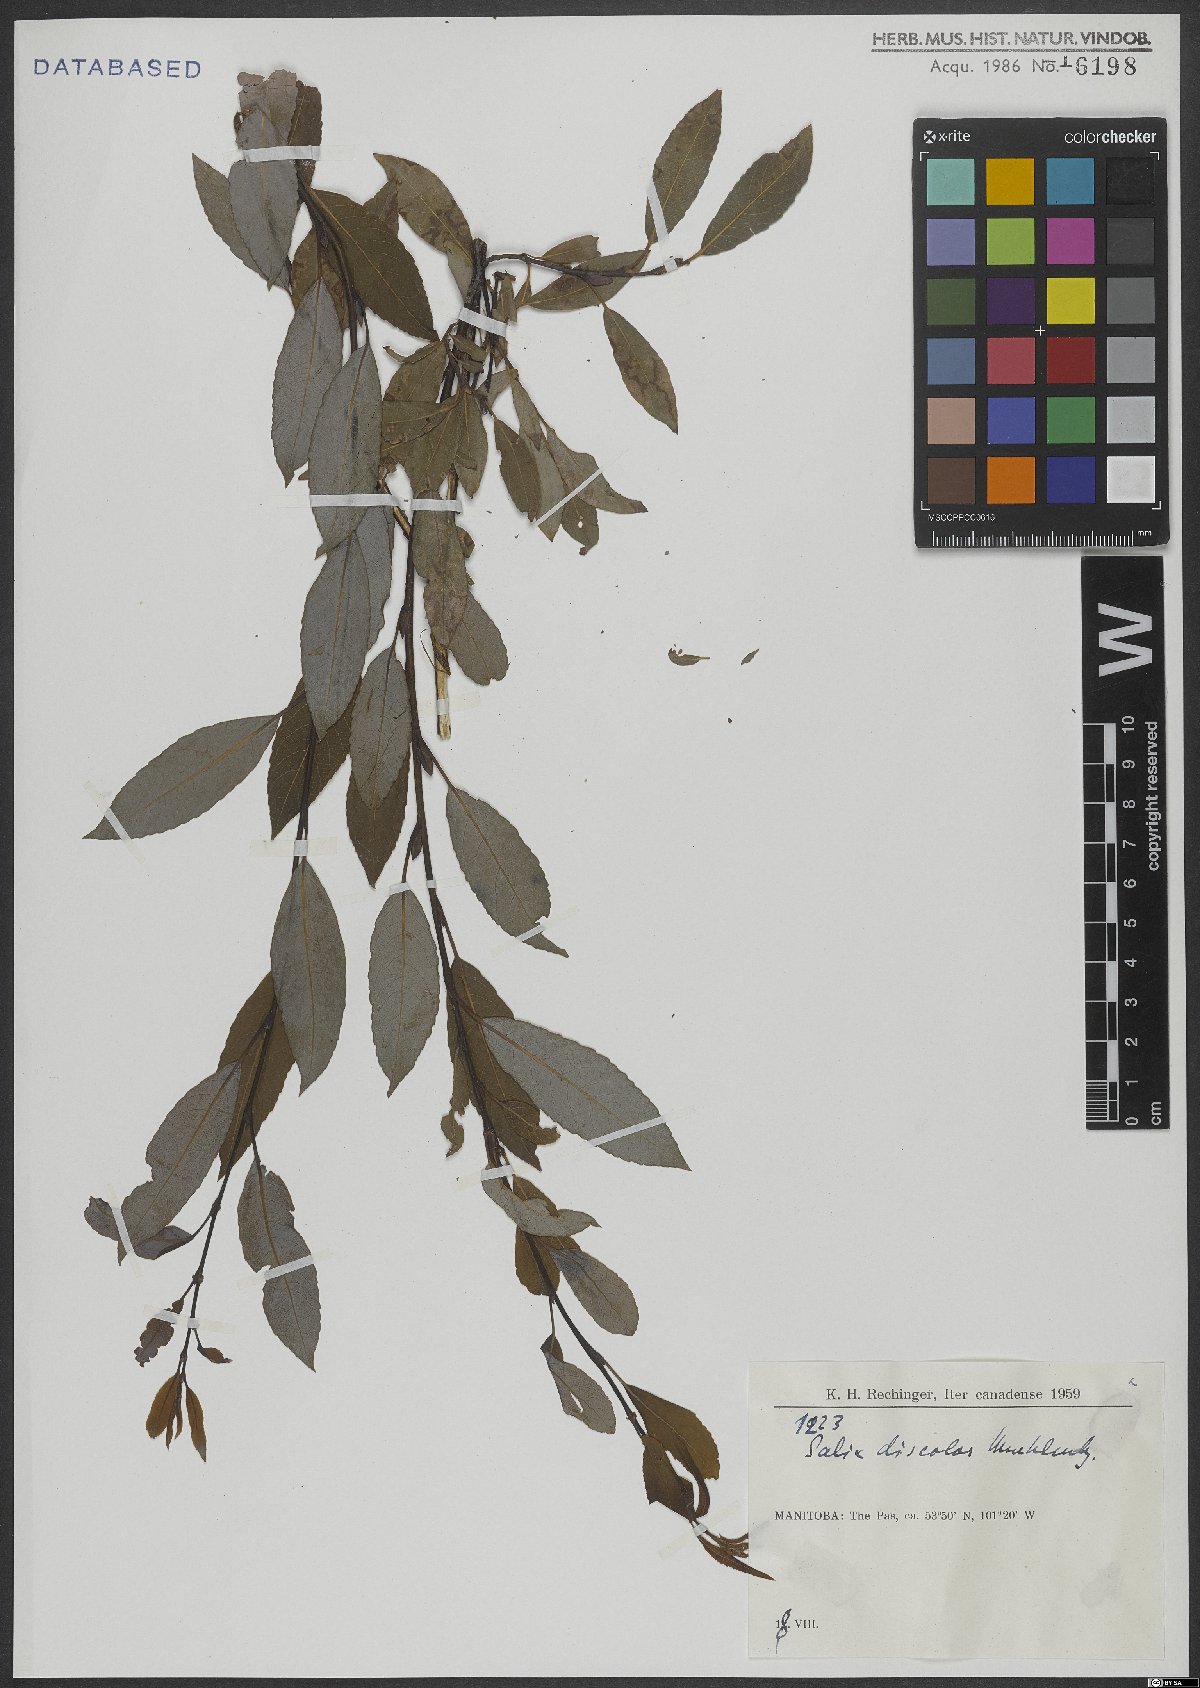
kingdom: Plantae
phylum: Tracheophyta
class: Magnoliopsida
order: Malpighiales
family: Salicaceae
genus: Salix
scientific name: Salix discolor
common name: Glaucous willow
